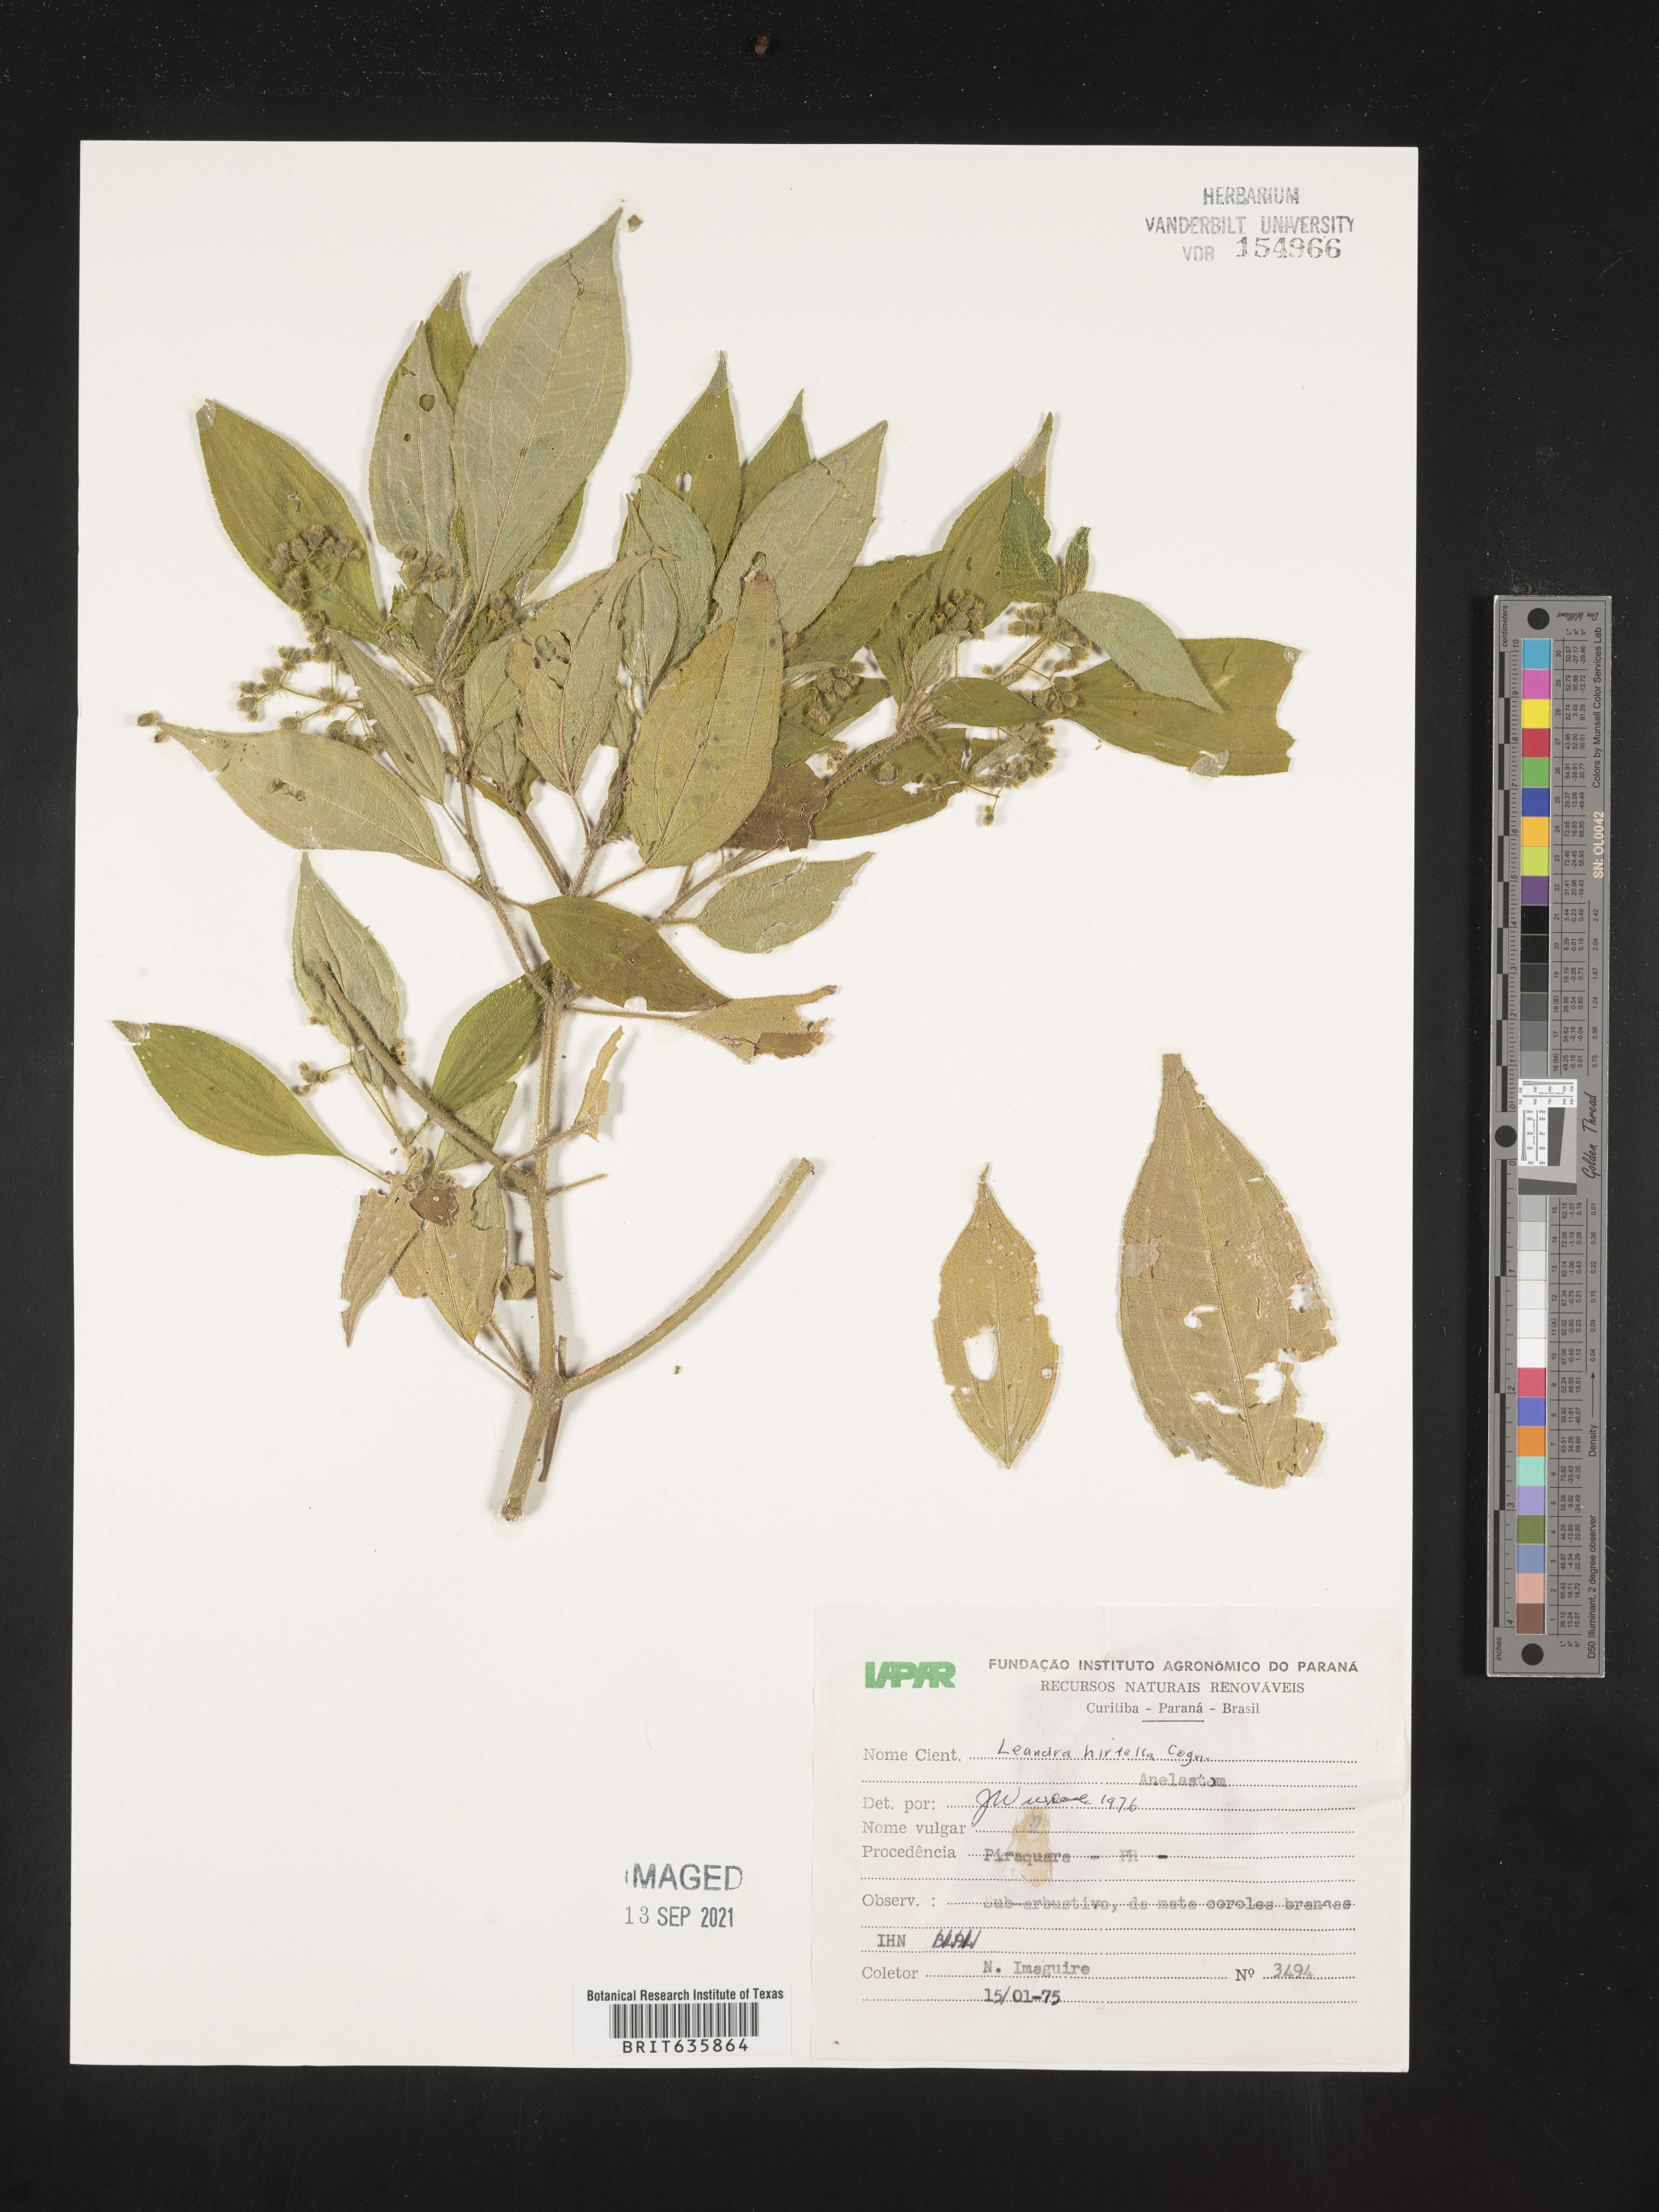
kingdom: Plantae
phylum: Tracheophyta
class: Magnoliopsida
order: Myrtales
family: Melastomataceae
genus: Miconia
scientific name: Miconia
